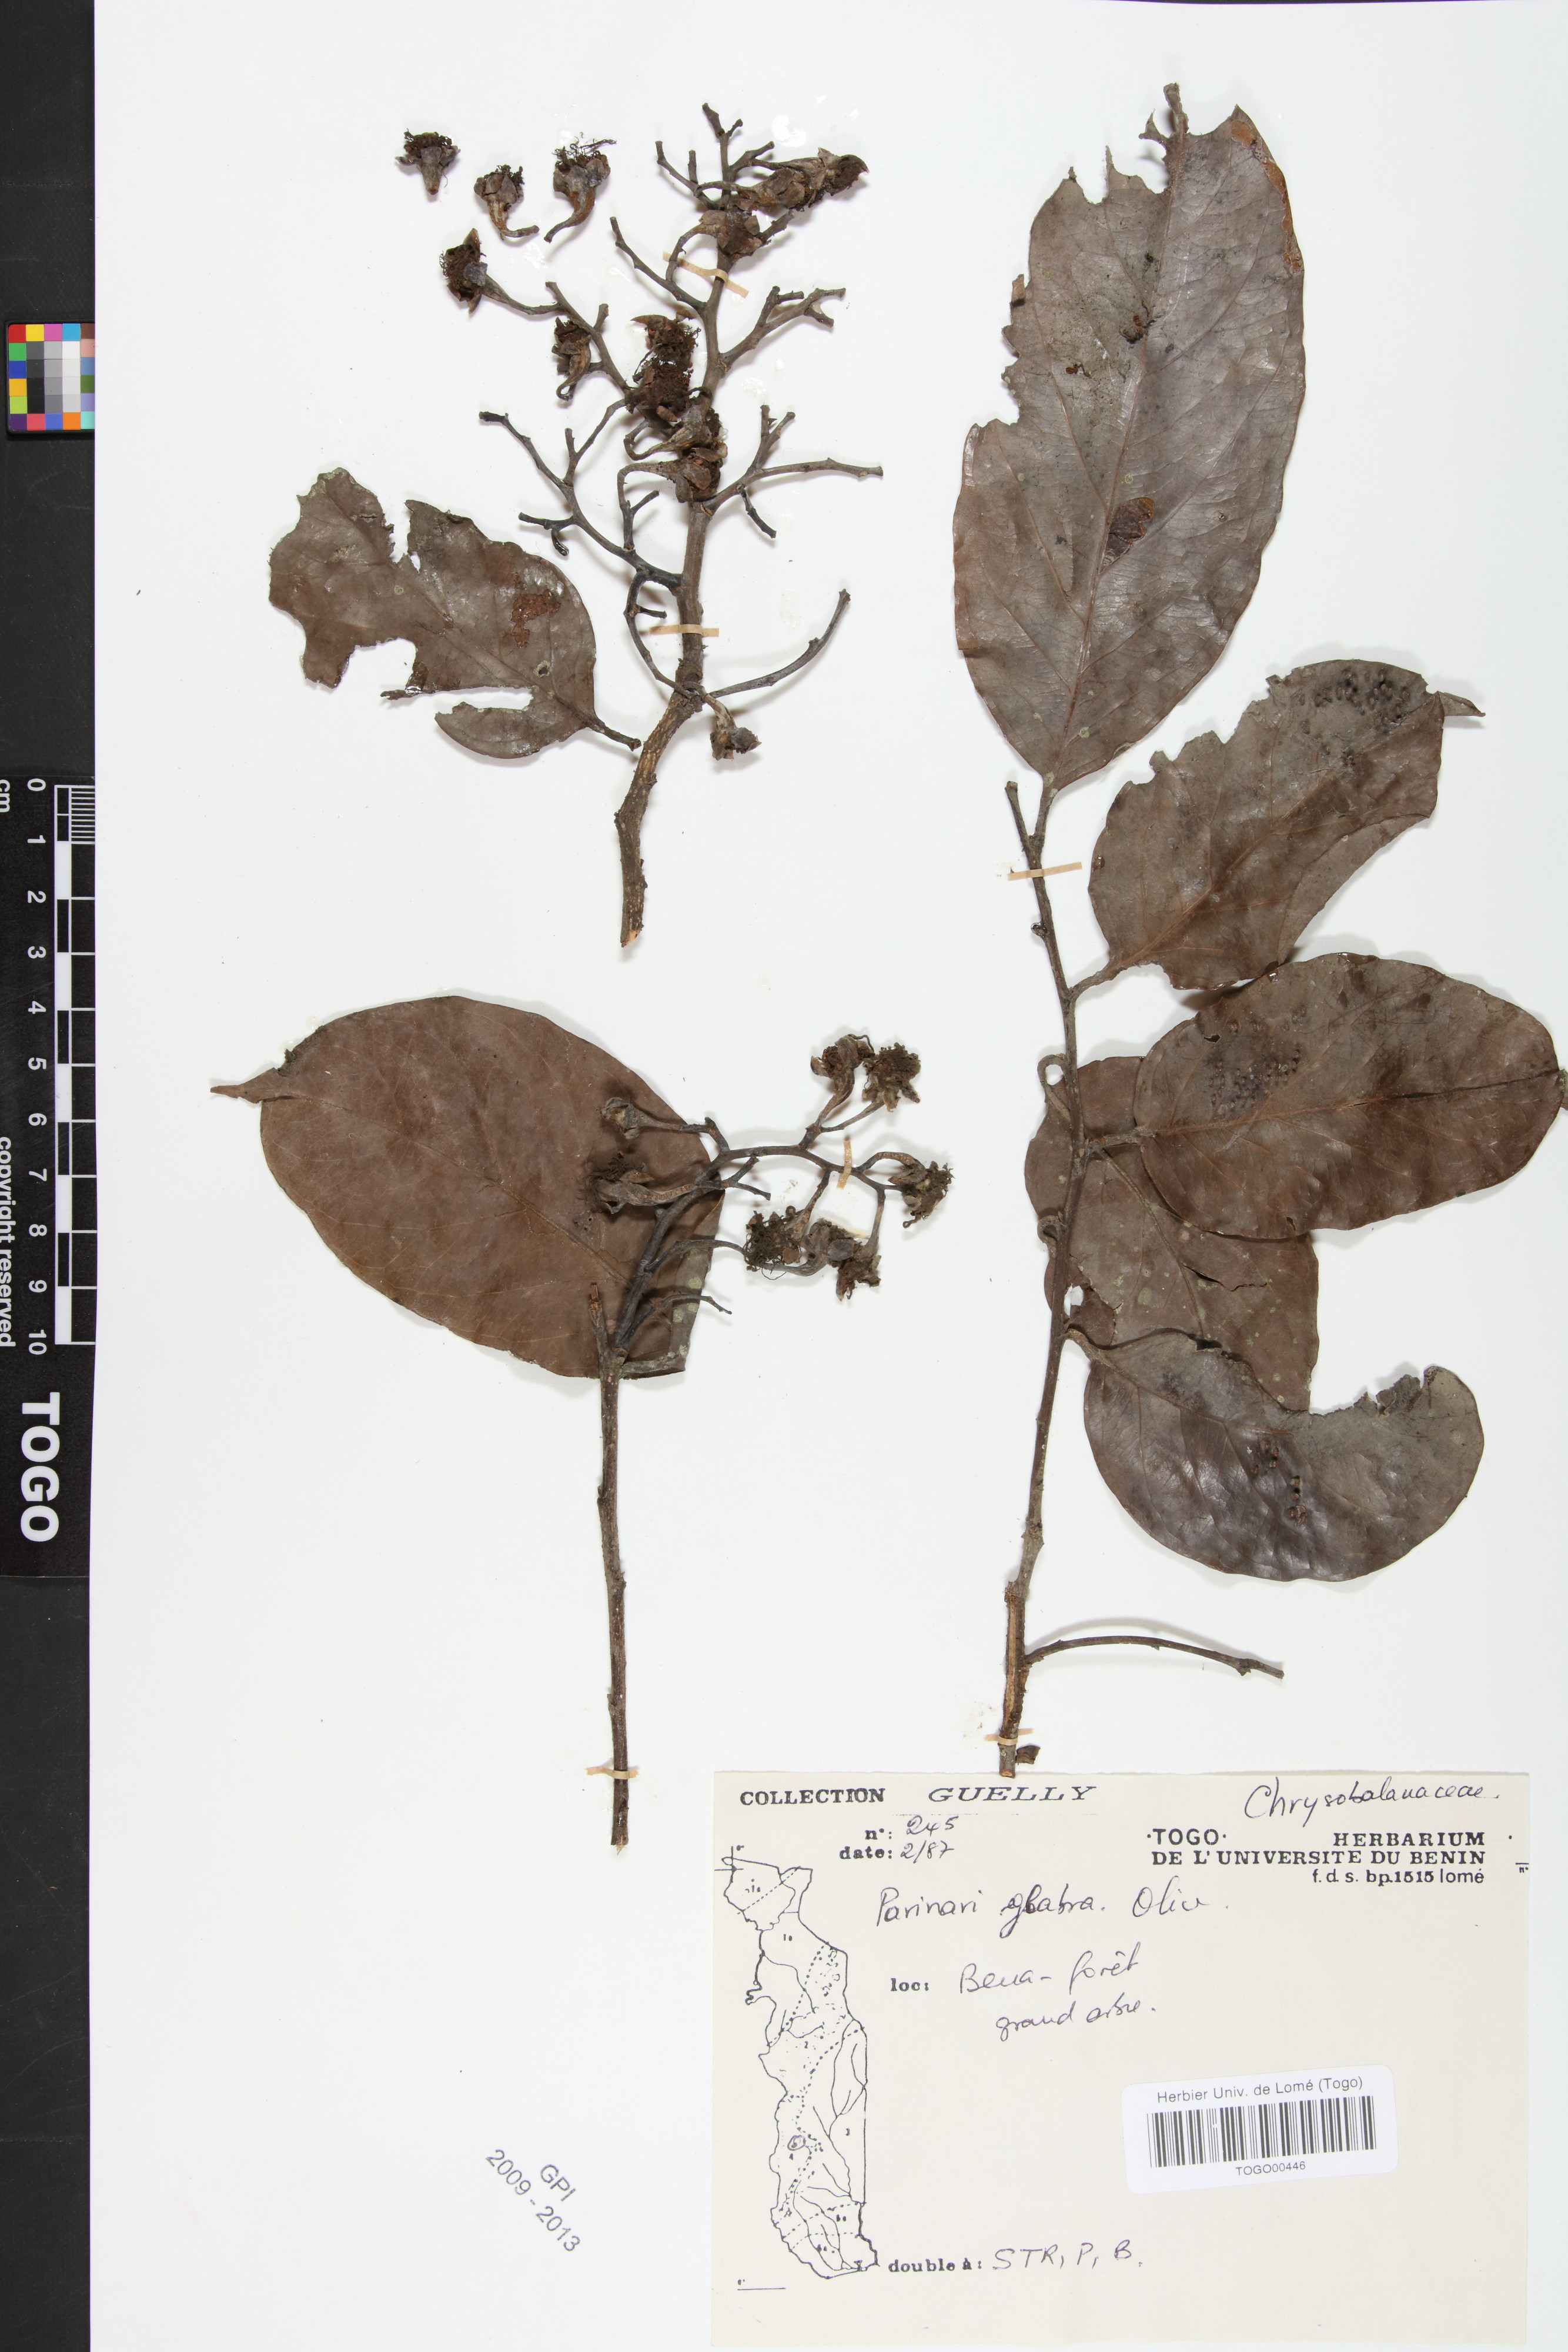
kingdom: Plantae
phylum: Tracheophyta
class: Magnoliopsida
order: Malpighiales
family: Chrysobalanaceae
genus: Maranthes
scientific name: Maranthes glabra
